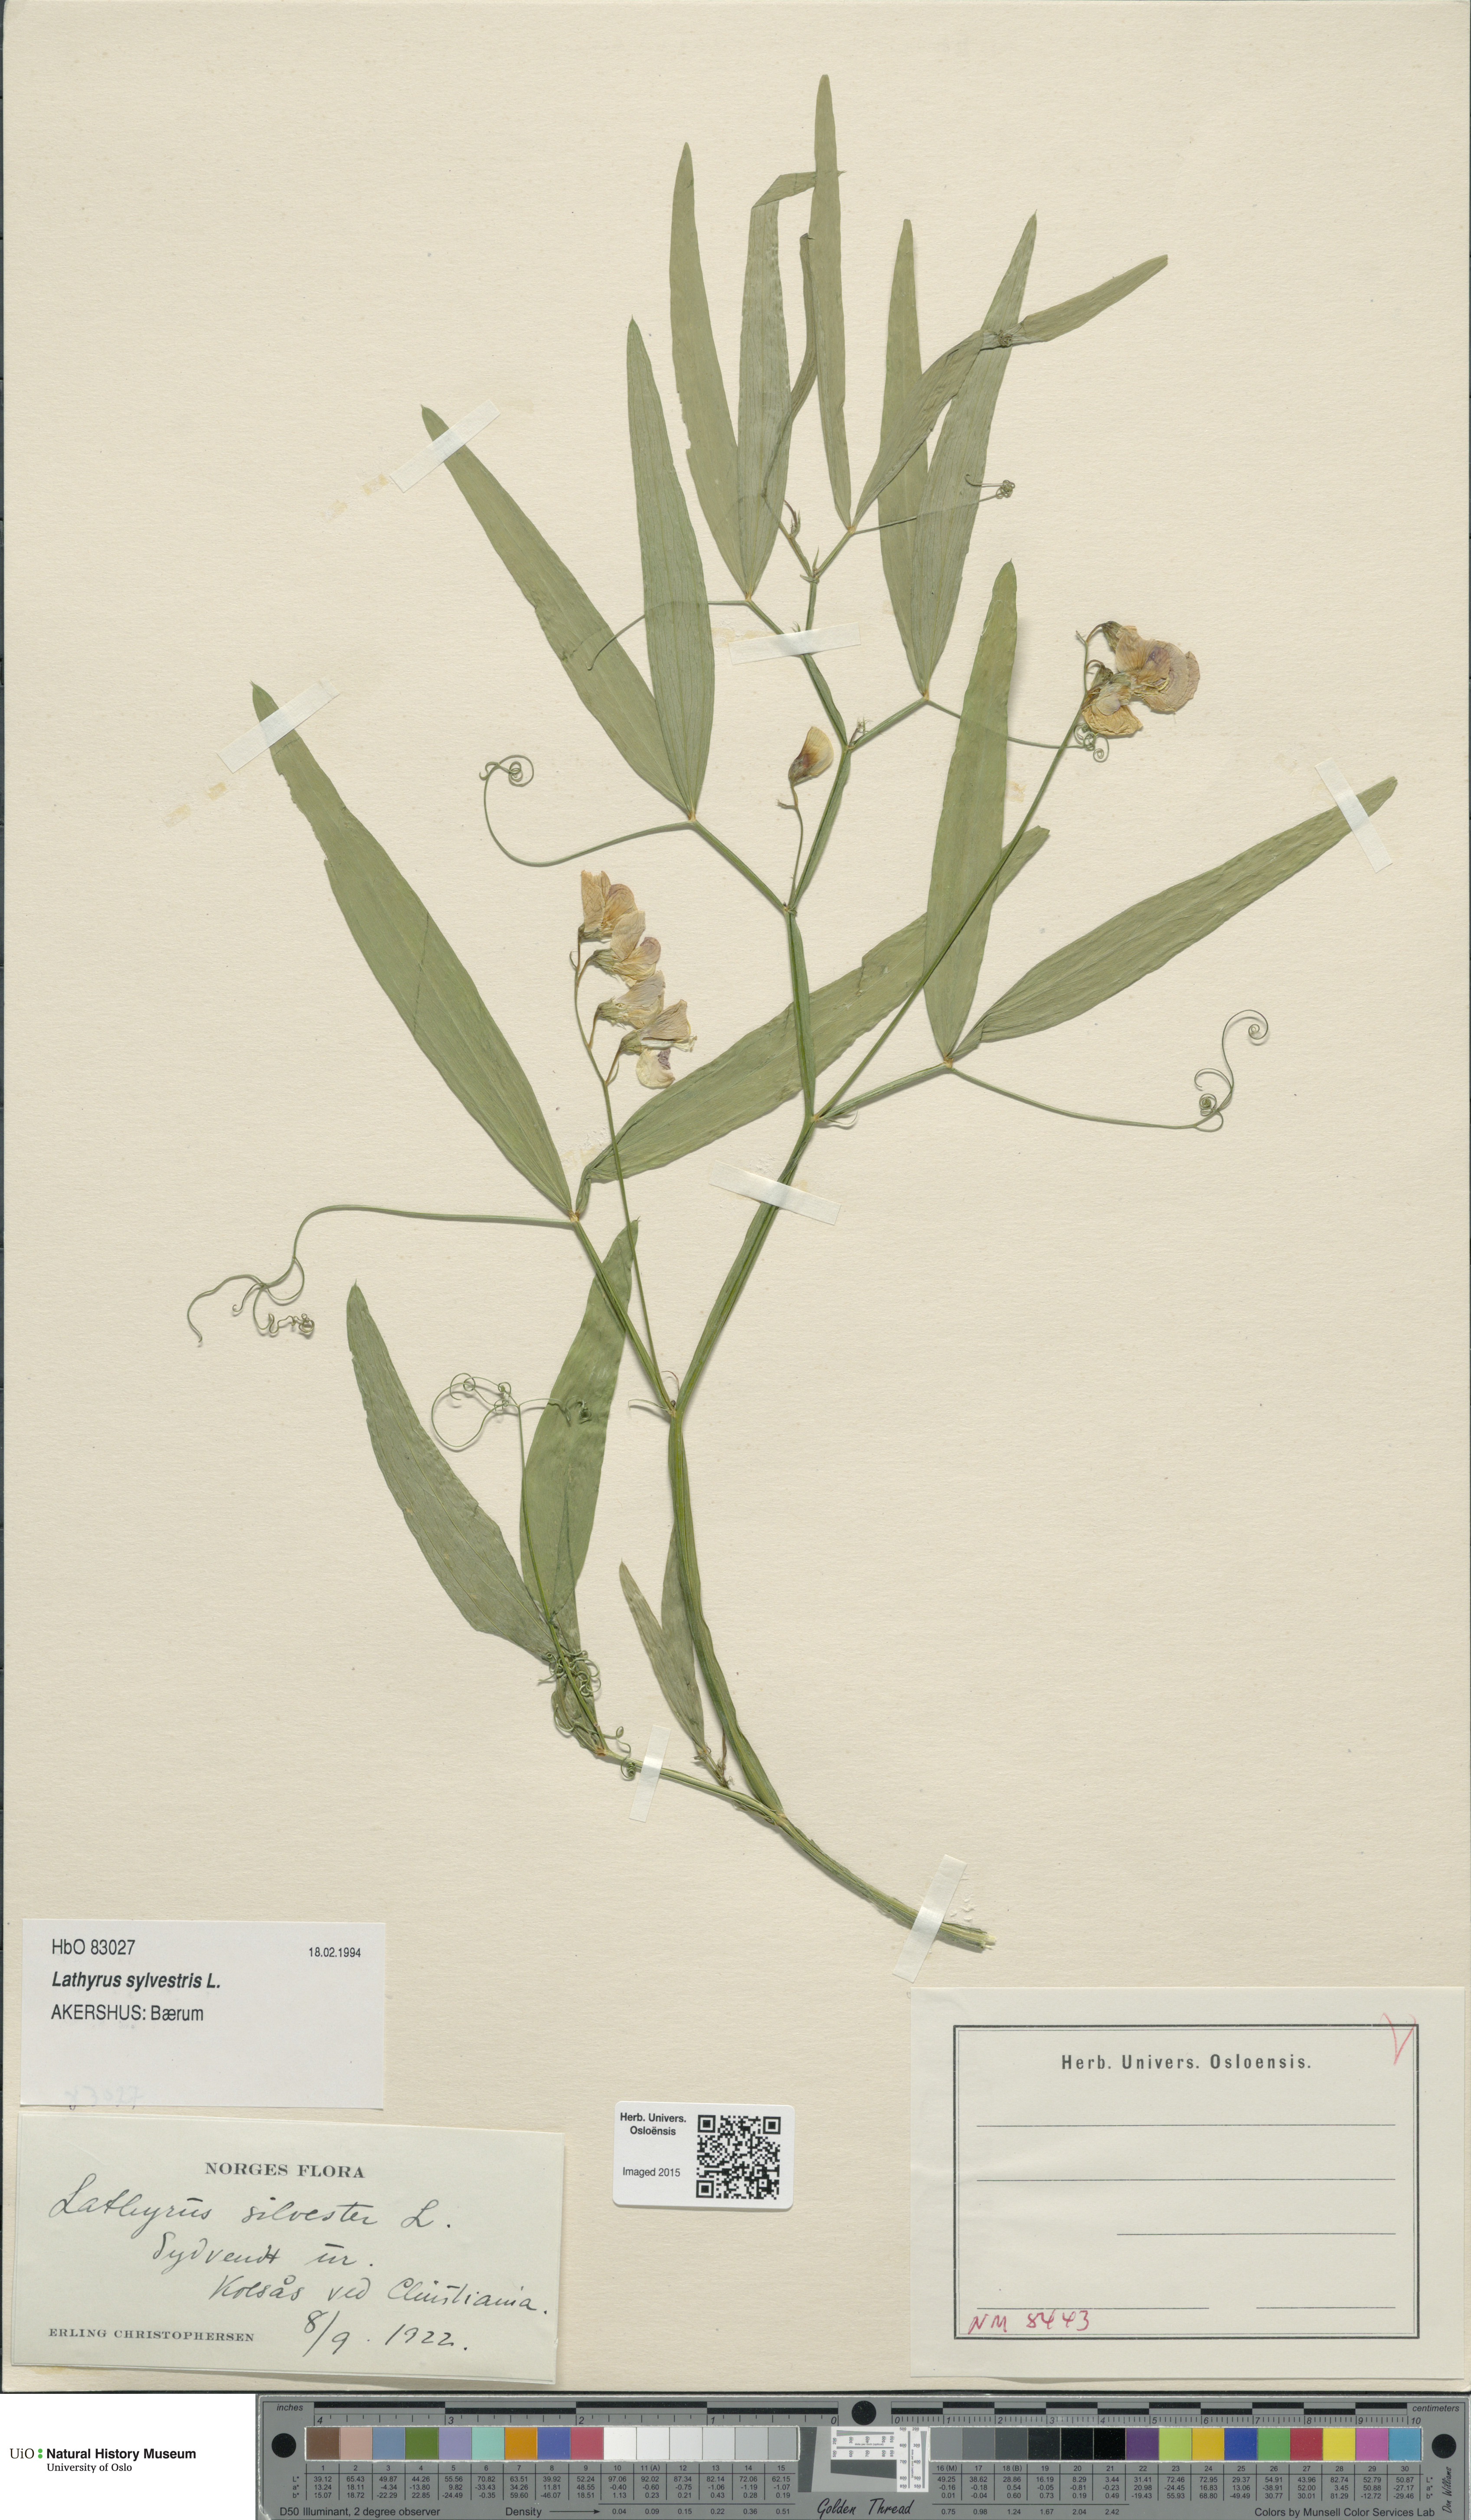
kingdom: Plantae
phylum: Tracheophyta
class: Magnoliopsida
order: Fabales
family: Fabaceae
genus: Lathyrus
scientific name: Lathyrus sylvestris
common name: Flat pea
